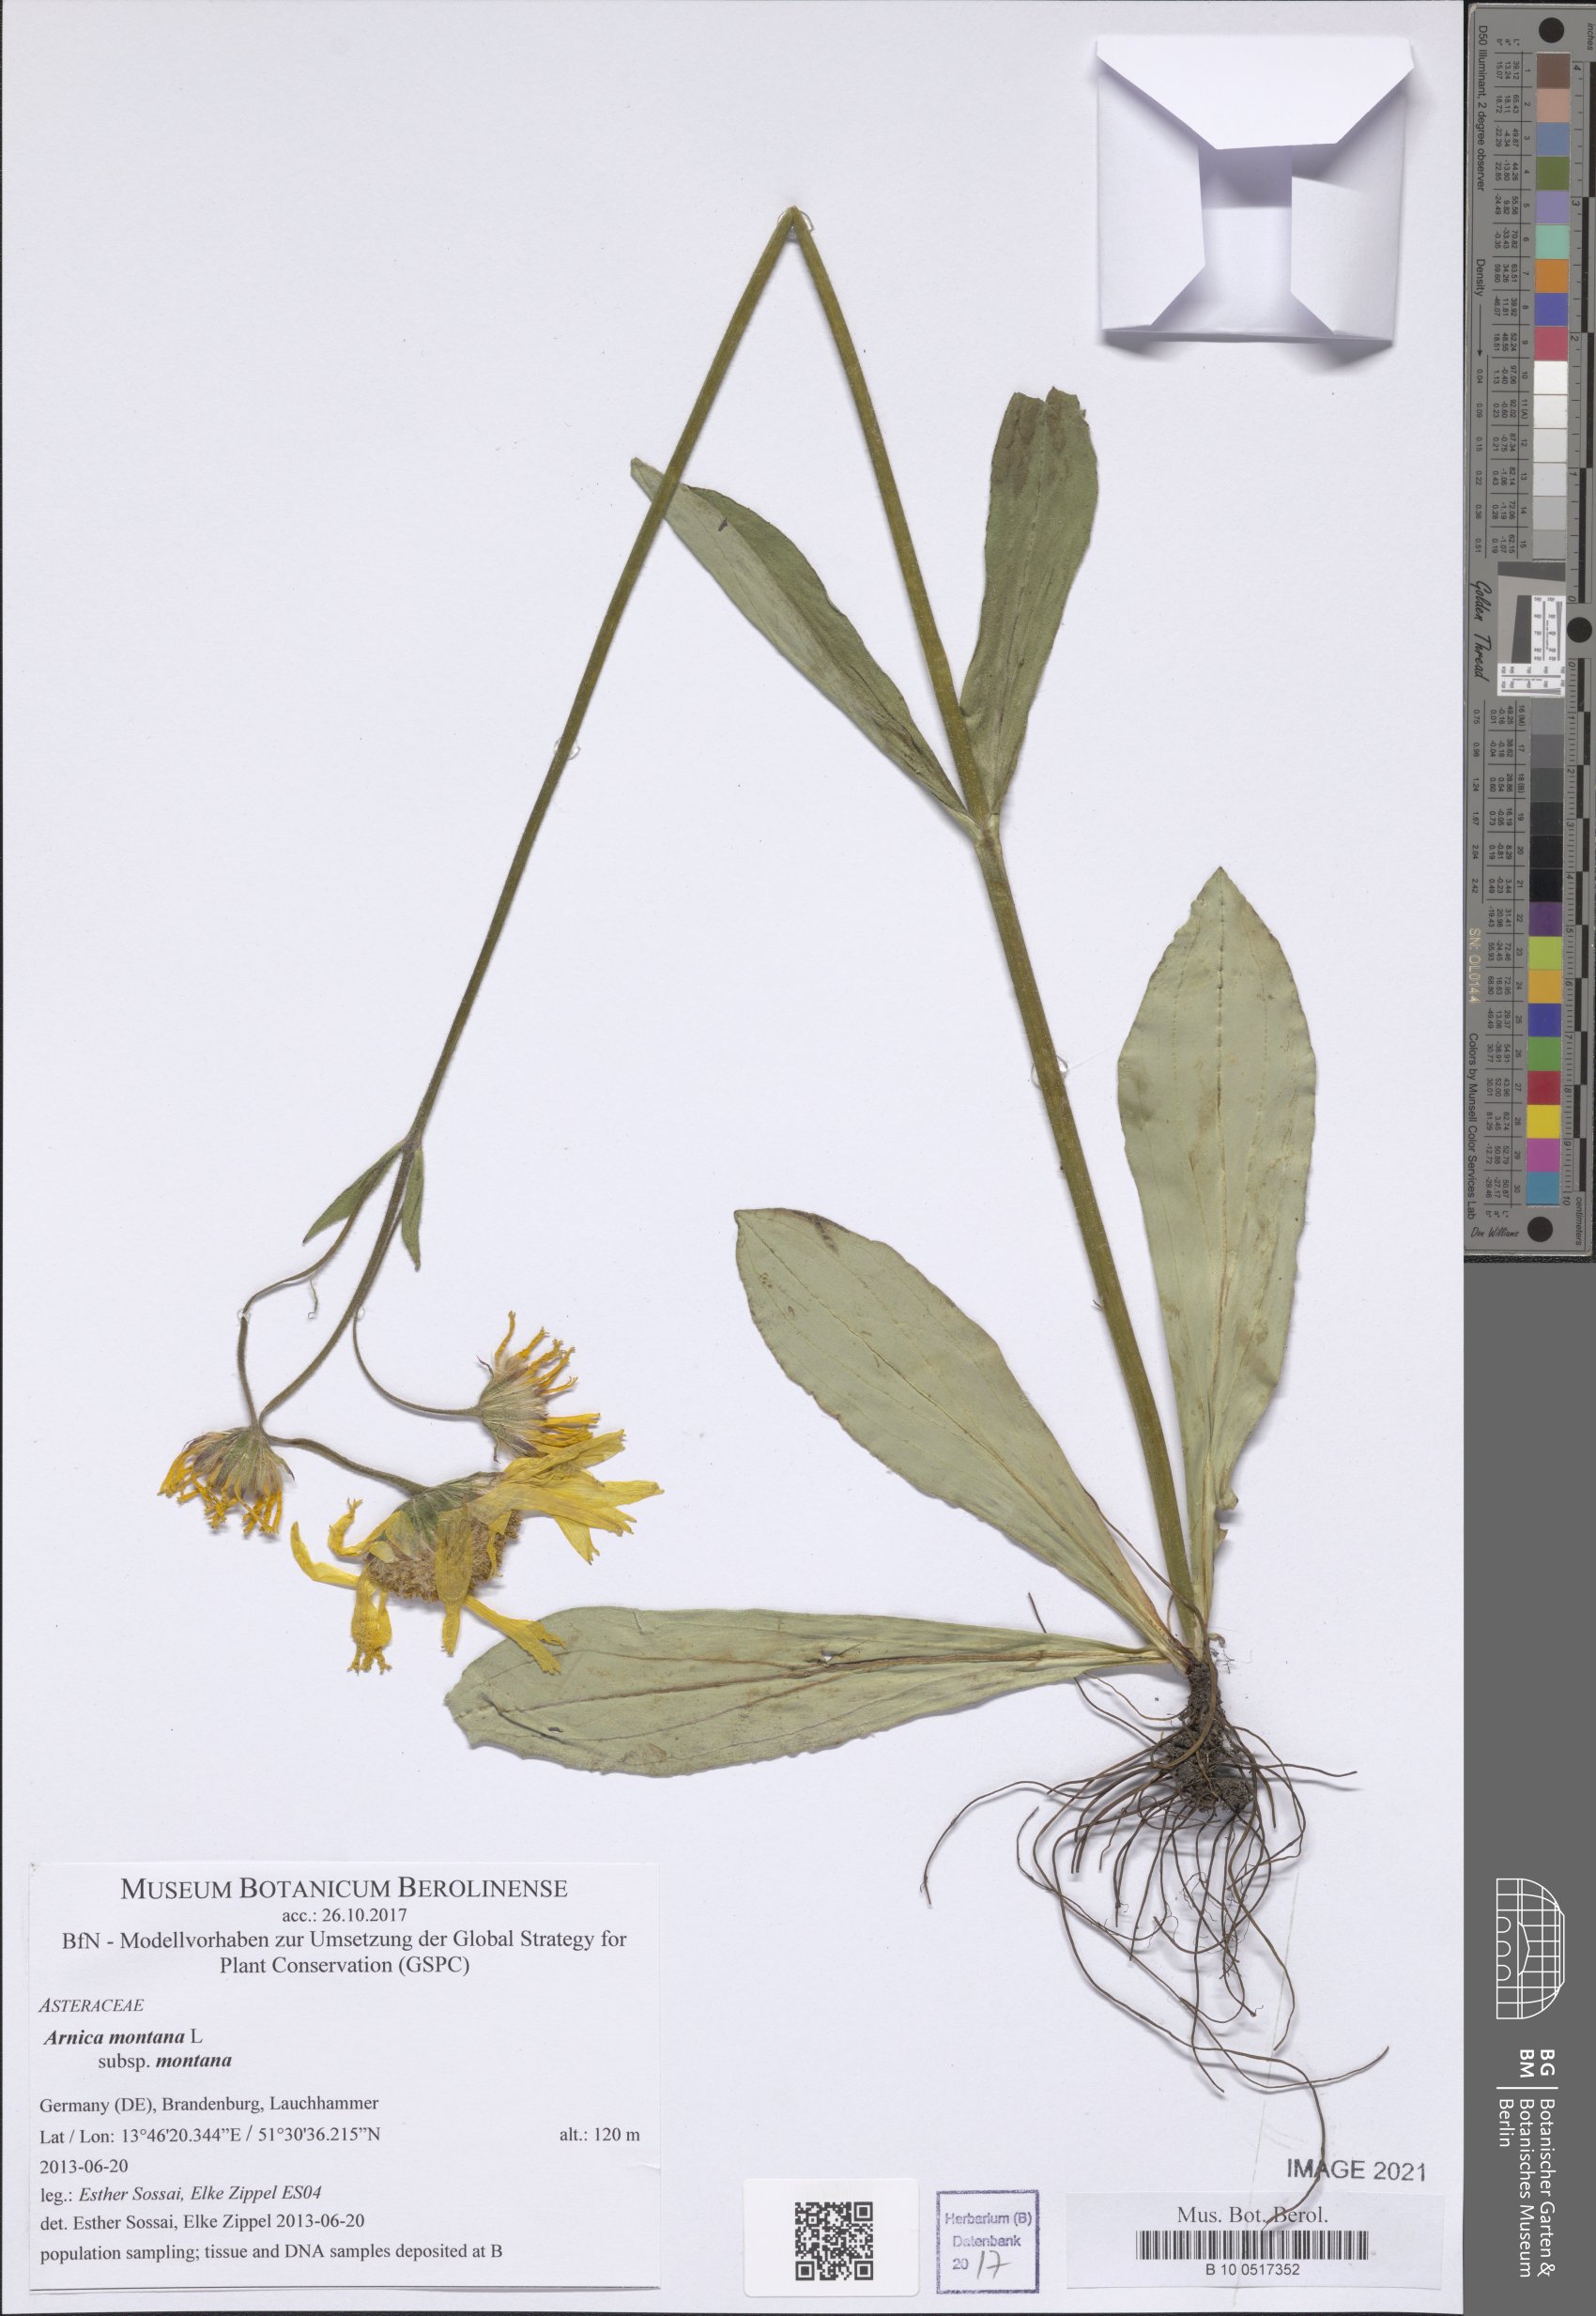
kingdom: Plantae
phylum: Tracheophyta
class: Magnoliopsida
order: Asterales
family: Asteraceae
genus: Arnica
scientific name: Arnica montana
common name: Leopard's bane
